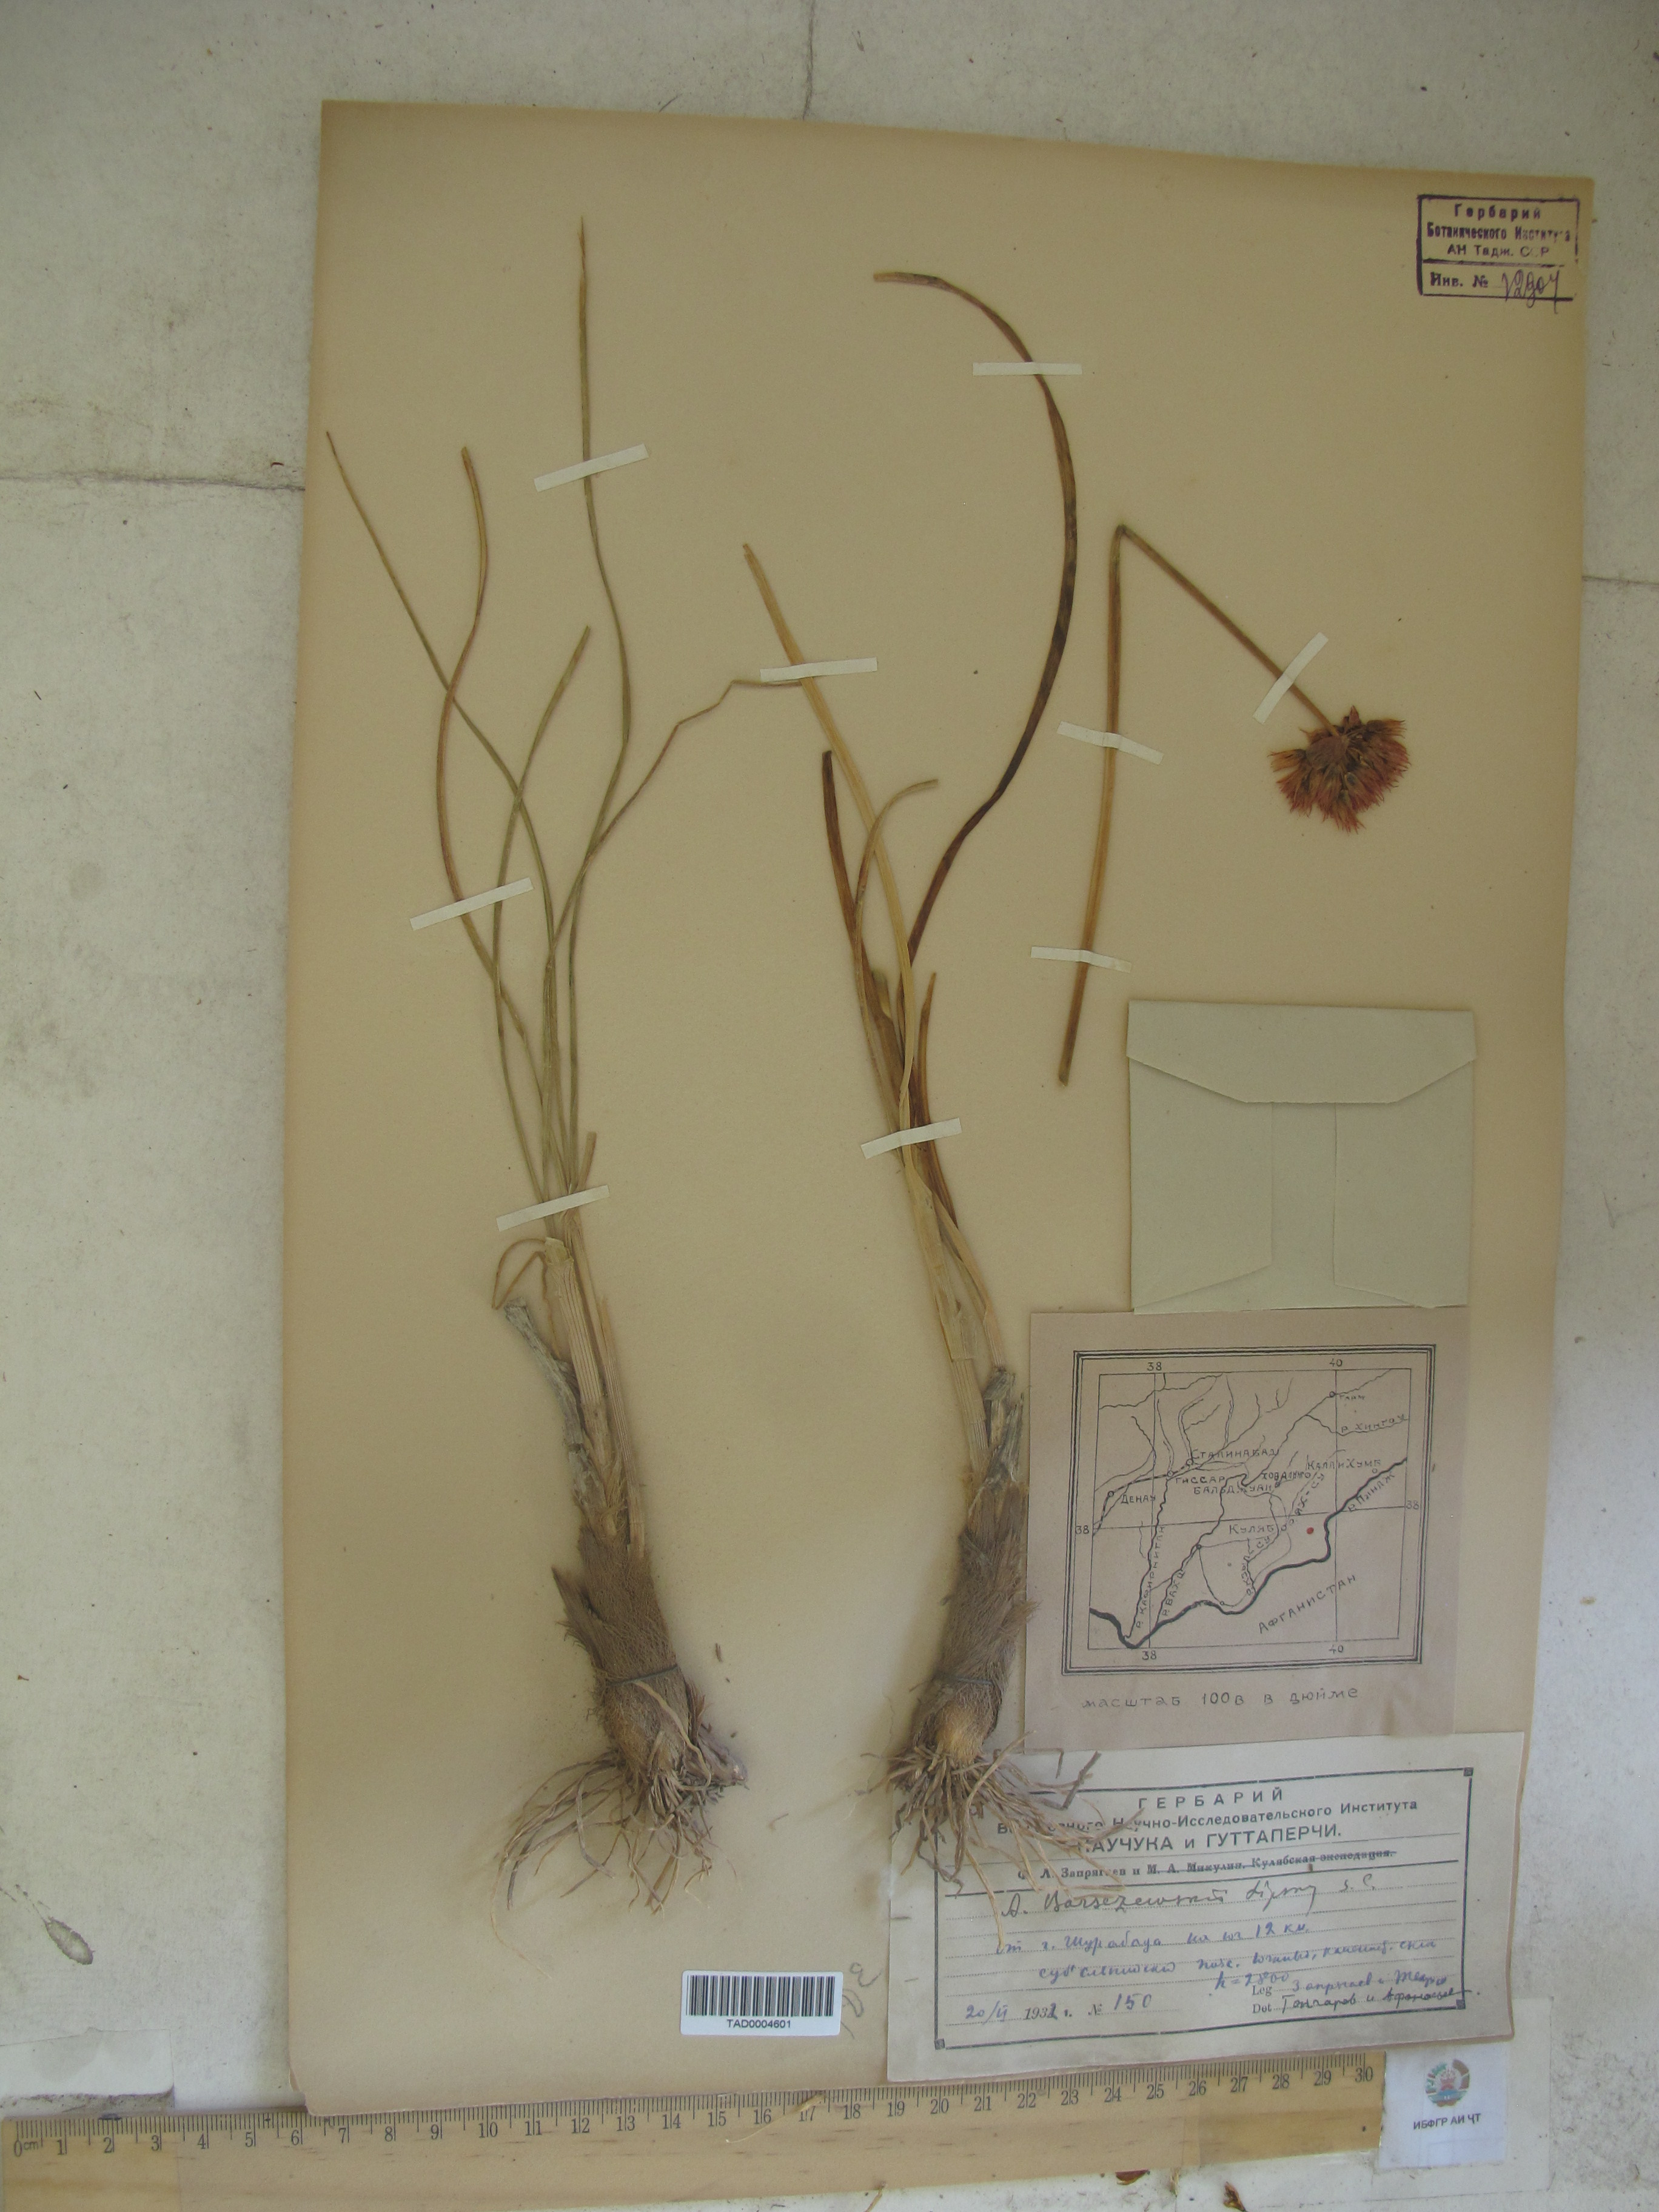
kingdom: Plantae
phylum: Tracheophyta
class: Liliopsida
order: Asparagales
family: Amaryllidaceae
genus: Allium
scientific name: Allium barsczewskii
